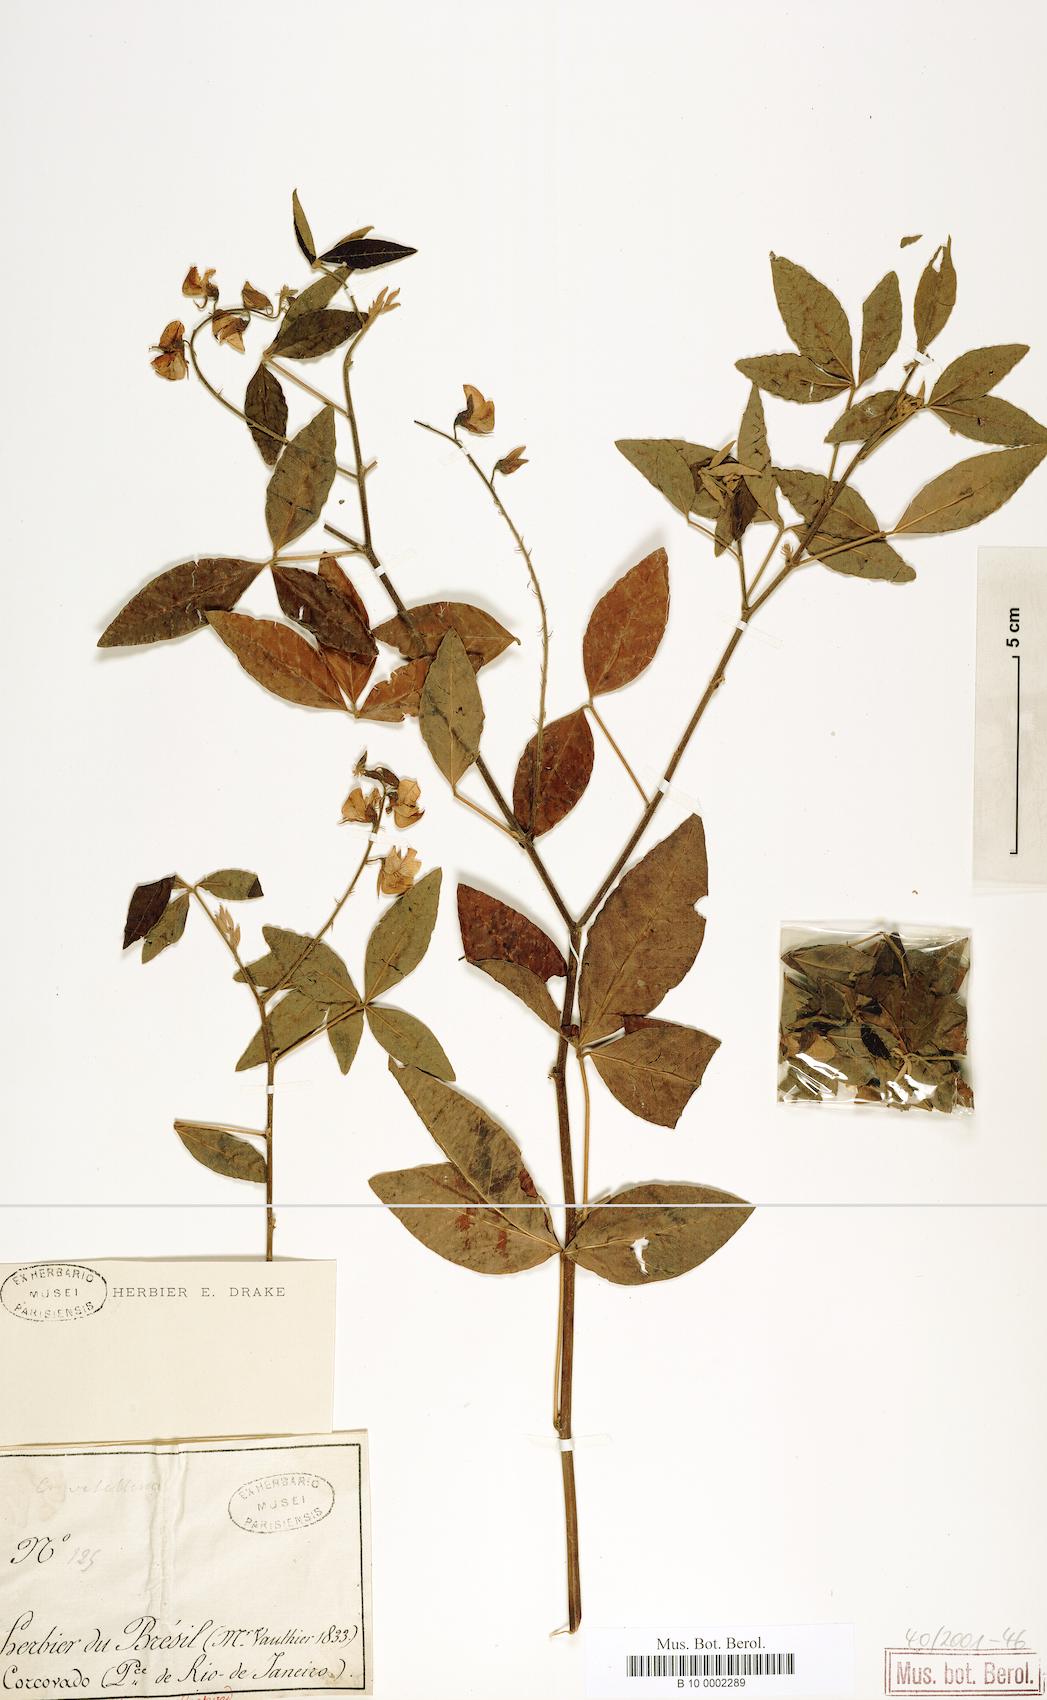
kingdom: Plantae
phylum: Tracheophyta
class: Magnoliopsida
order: Fabales
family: Fabaceae
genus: Crotalaria
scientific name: Crotalaria vitellina
